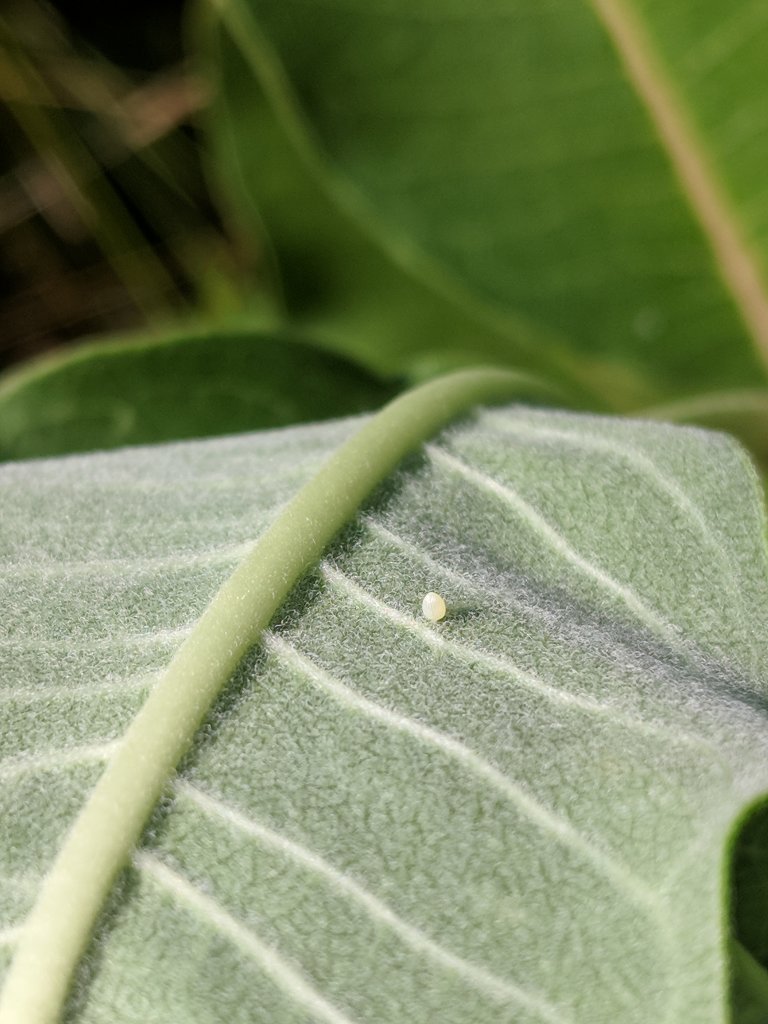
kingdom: Animalia
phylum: Arthropoda
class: Insecta
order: Lepidoptera
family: Nymphalidae
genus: Danaus
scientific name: Danaus plexippus
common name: Monarch
